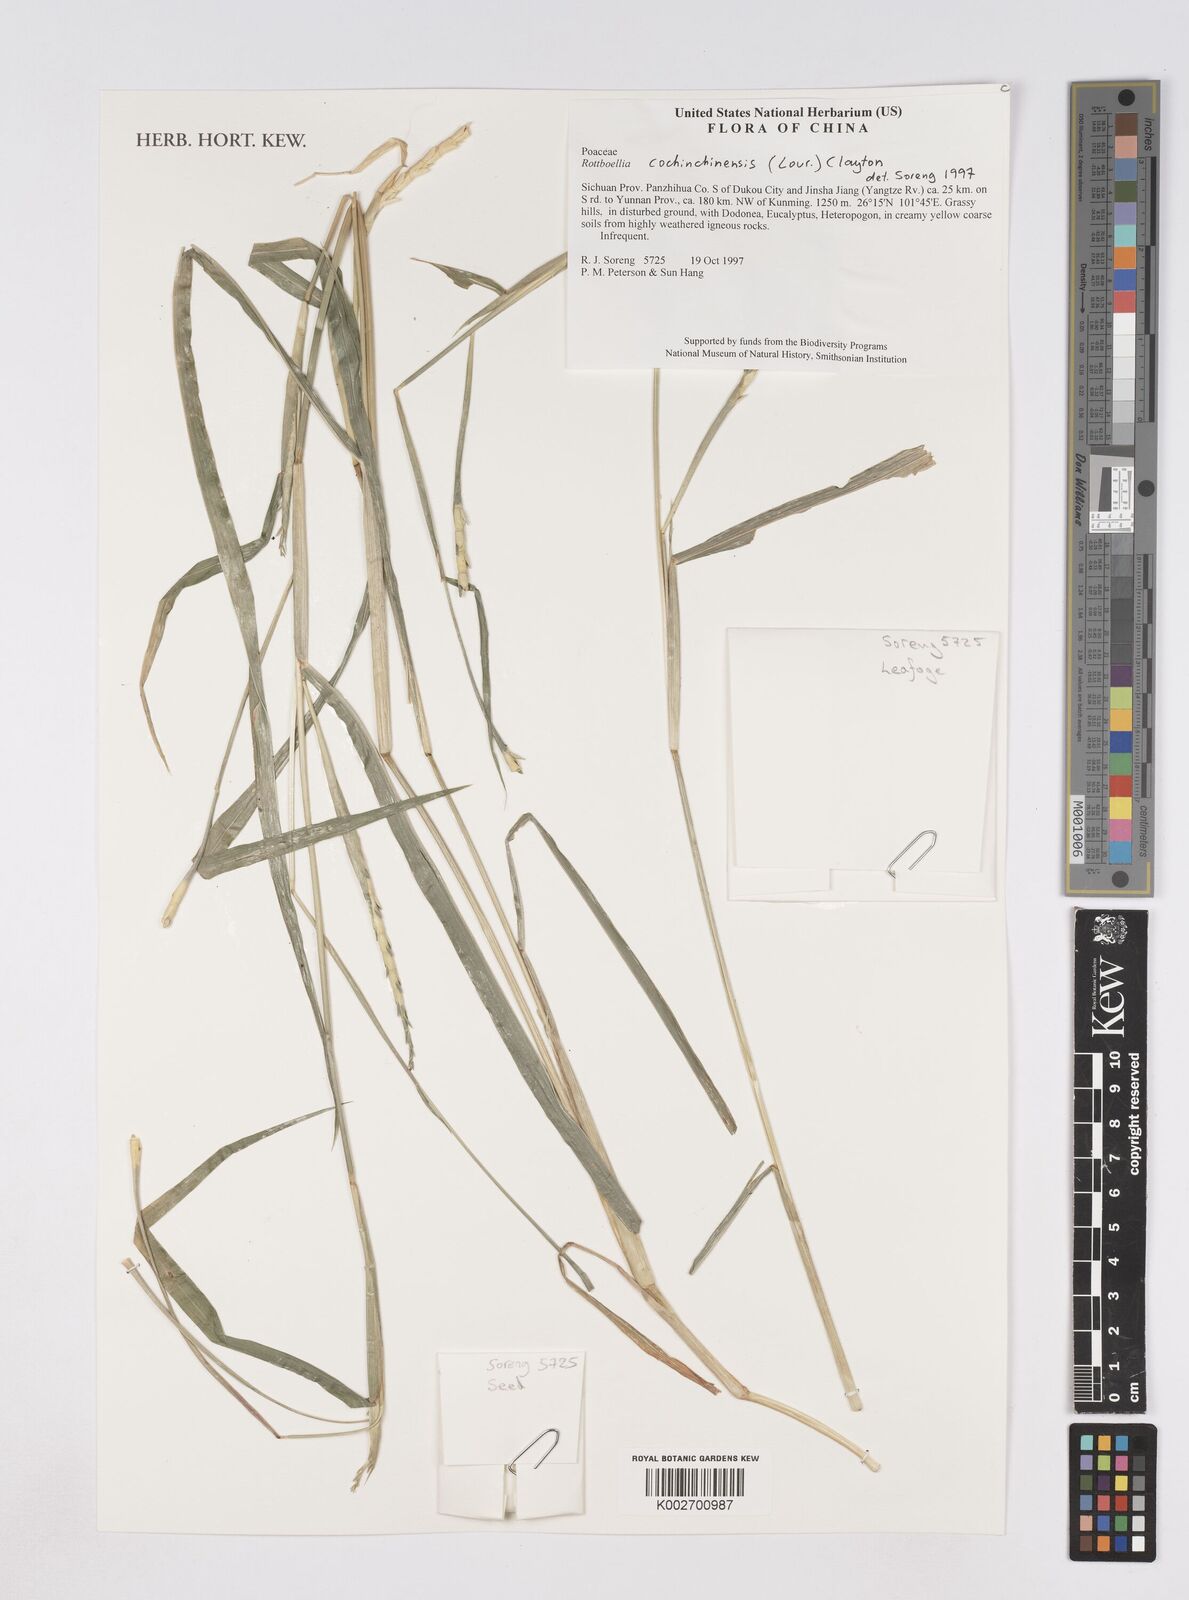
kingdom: Plantae
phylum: Tracheophyta
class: Liliopsida
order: Poales
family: Poaceae
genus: Ophiuros
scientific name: Ophiuros exaltatus
